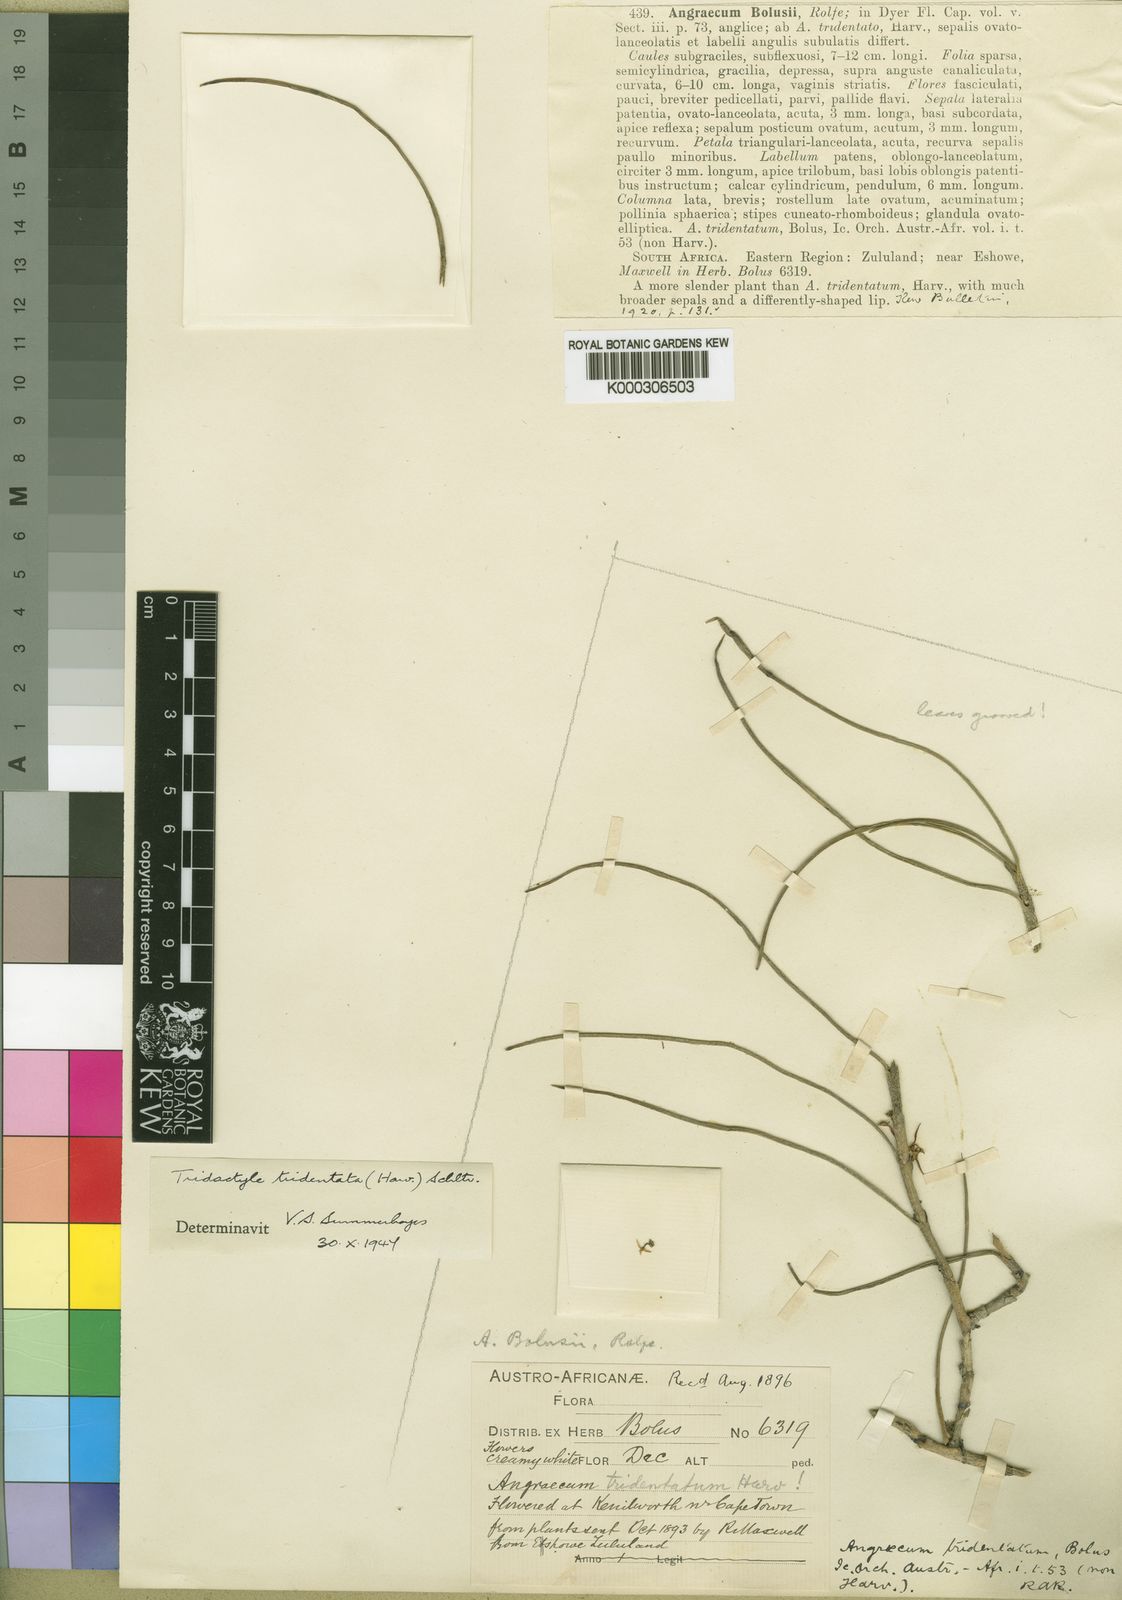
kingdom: Plantae
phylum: Tracheophyta
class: Liliopsida
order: Asparagales
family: Orchidaceae
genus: Tridactyle
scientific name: Tridactyle tridentata
